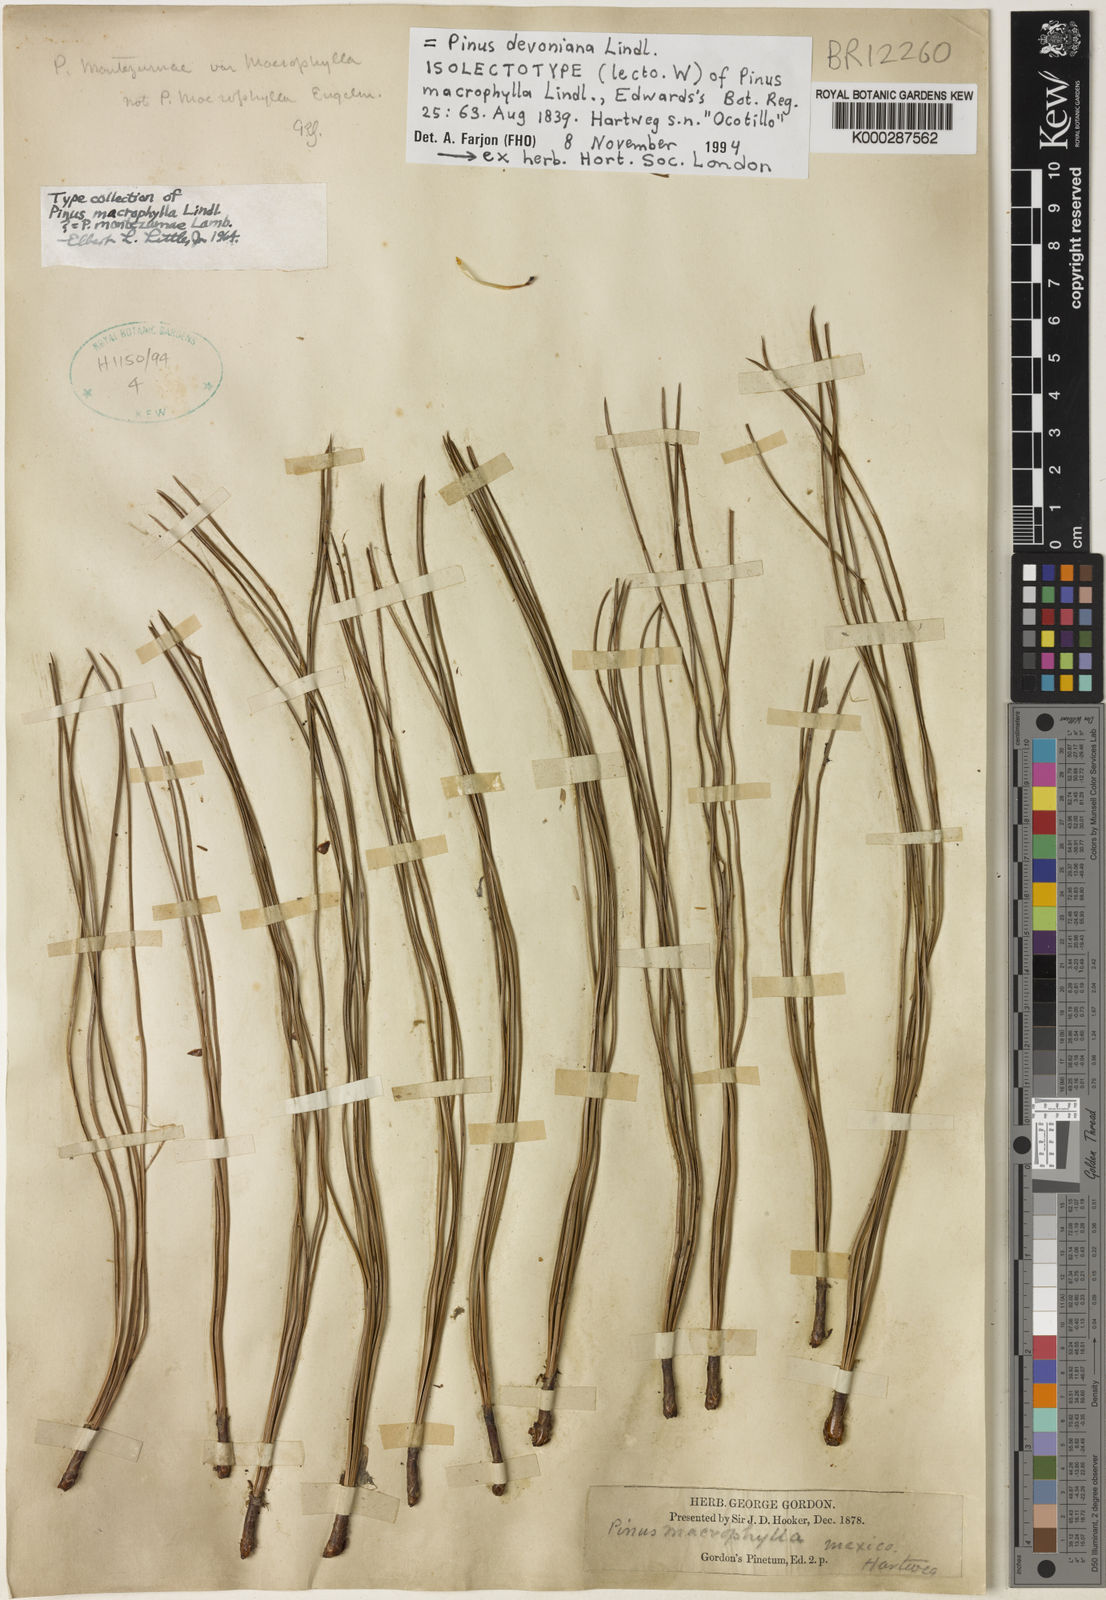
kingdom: Plantae
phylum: Tracheophyta
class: Pinopsida
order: Pinales
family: Pinaceae
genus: Pinus
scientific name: Pinus devoniana
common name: Michoacan pine
